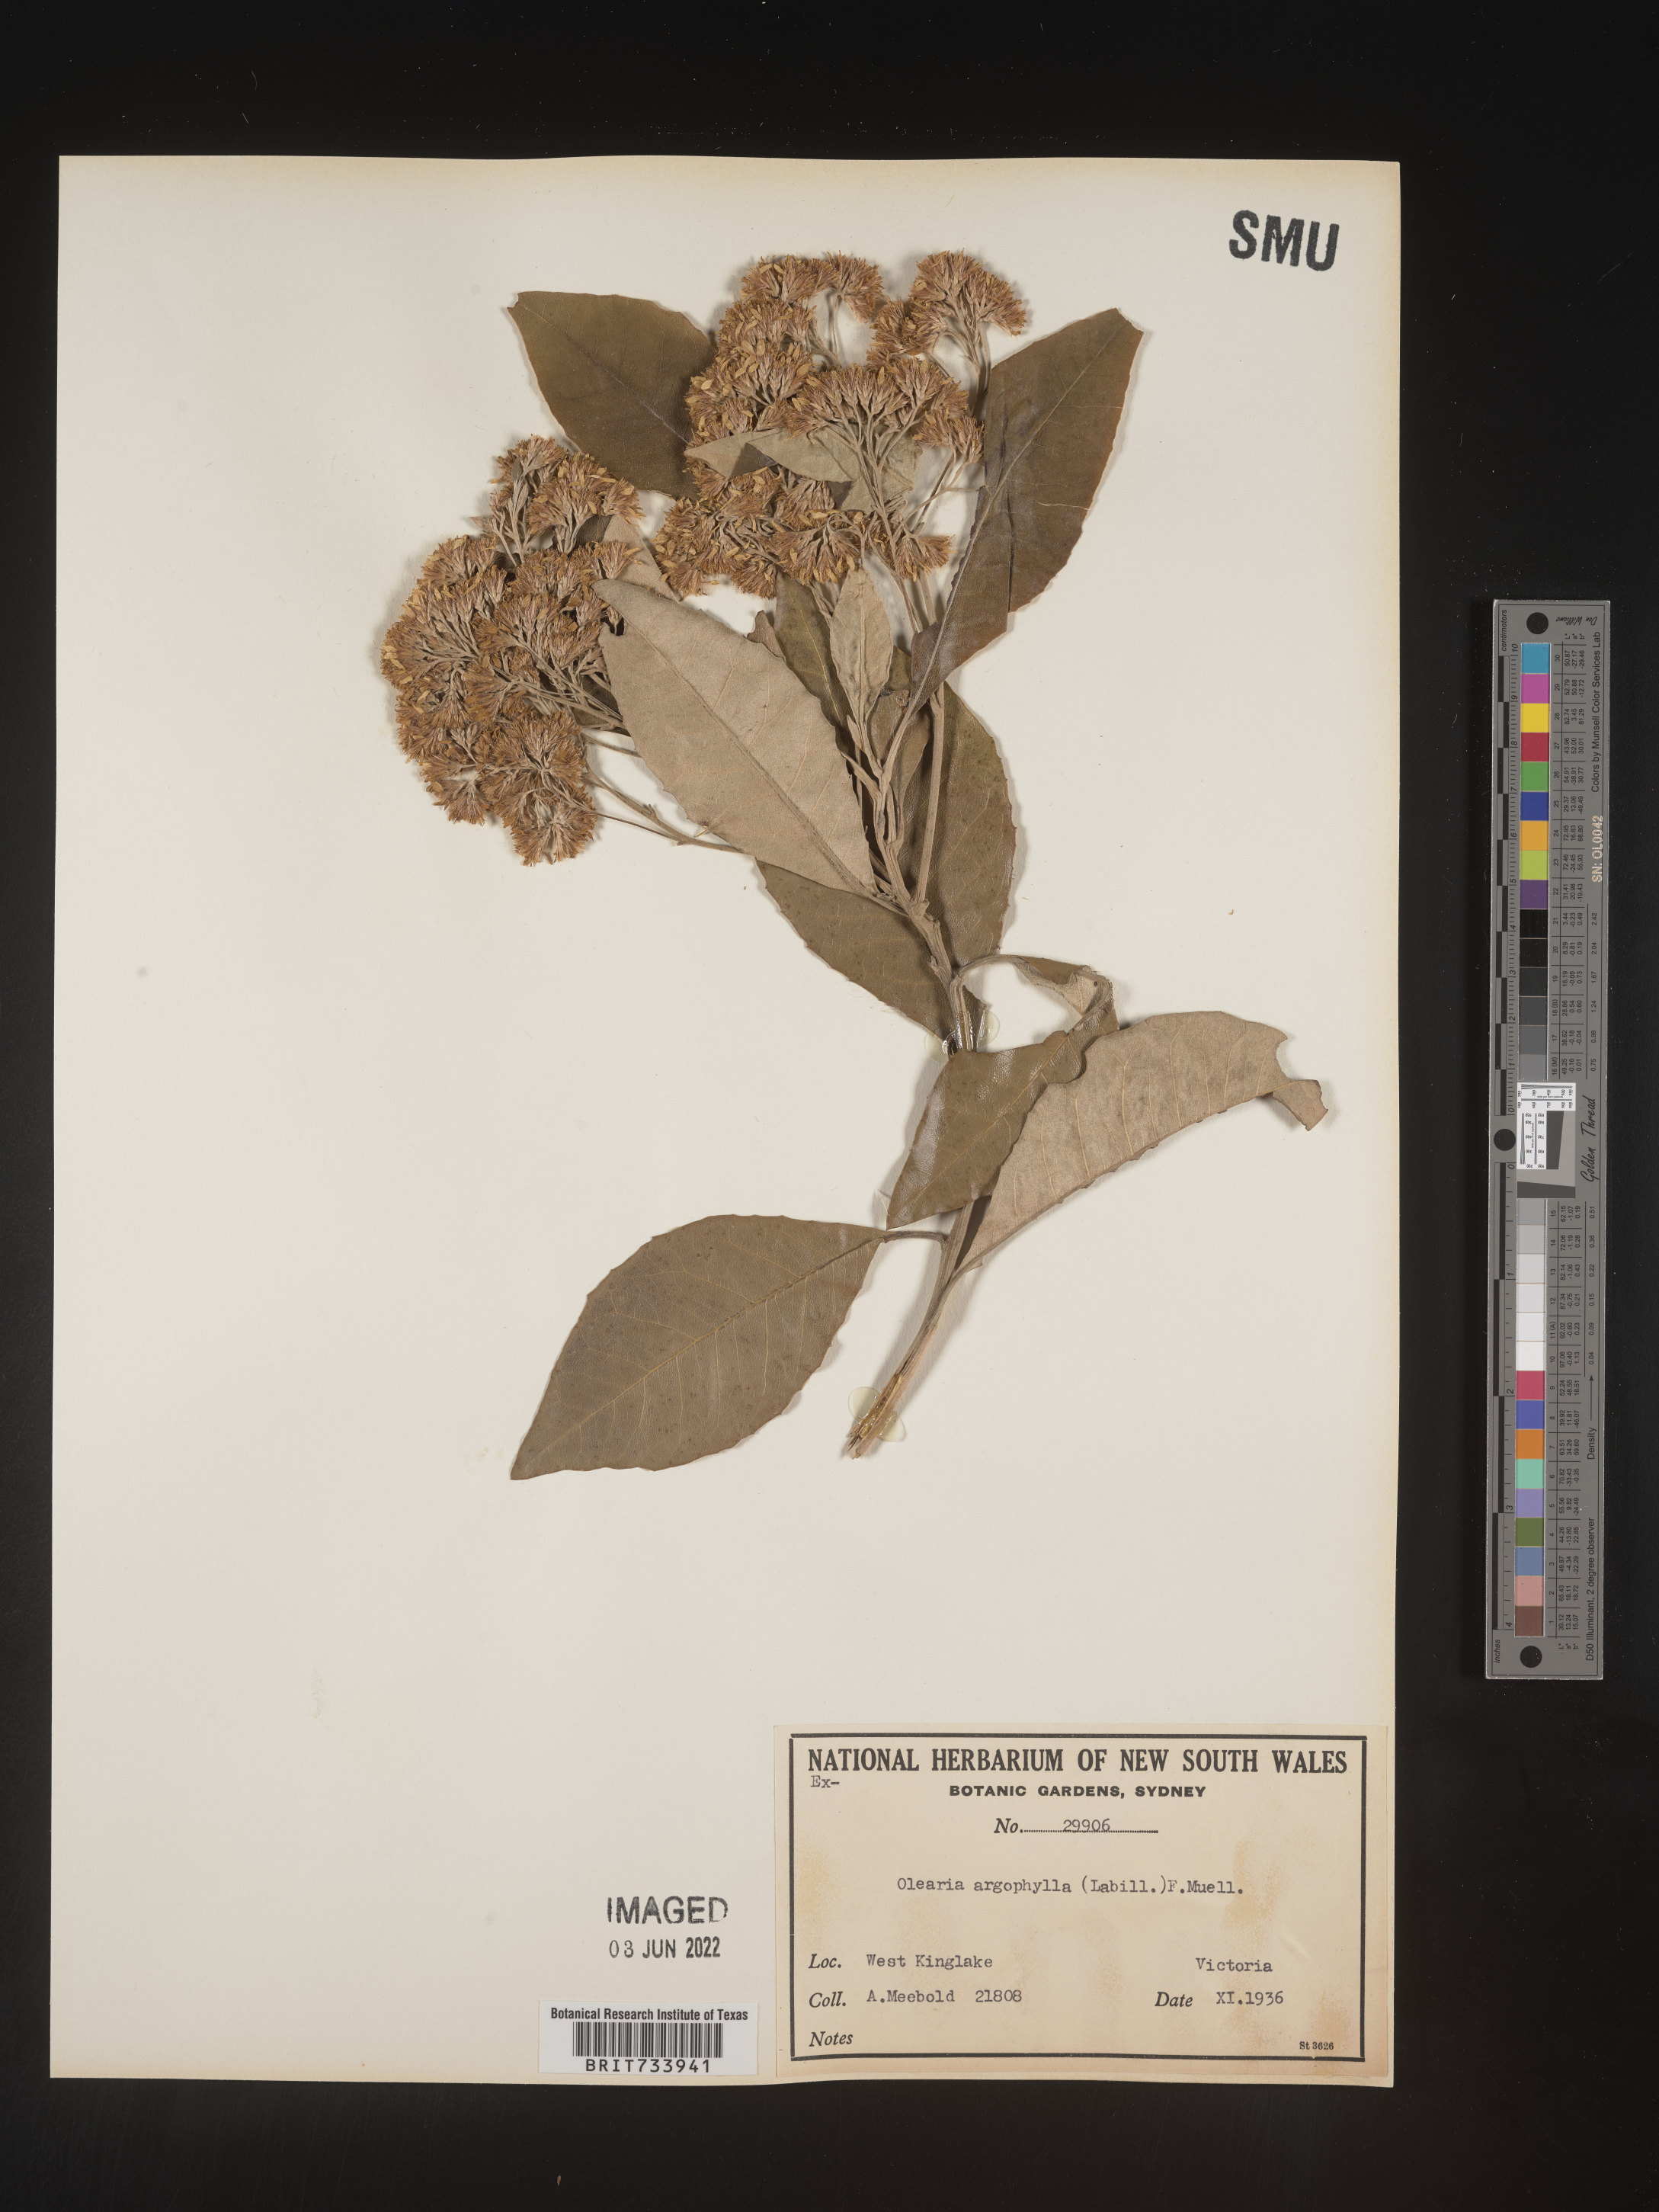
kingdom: Plantae
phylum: Tracheophyta
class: Magnoliopsida
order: Asterales
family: Asteraceae
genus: Olearia
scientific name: Olearia
